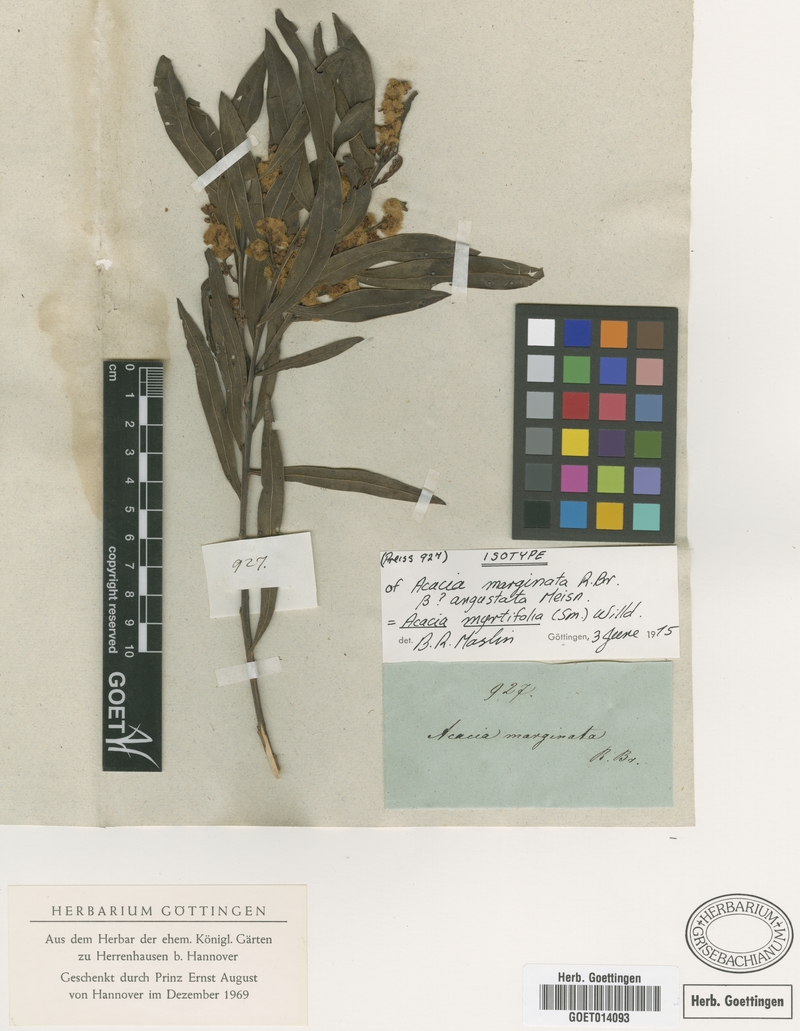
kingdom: Plantae
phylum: Tracheophyta
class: Magnoliopsida
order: Fabales
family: Fabaceae
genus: Acacia
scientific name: Acacia myrtifolia
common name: Myrtle wattle
